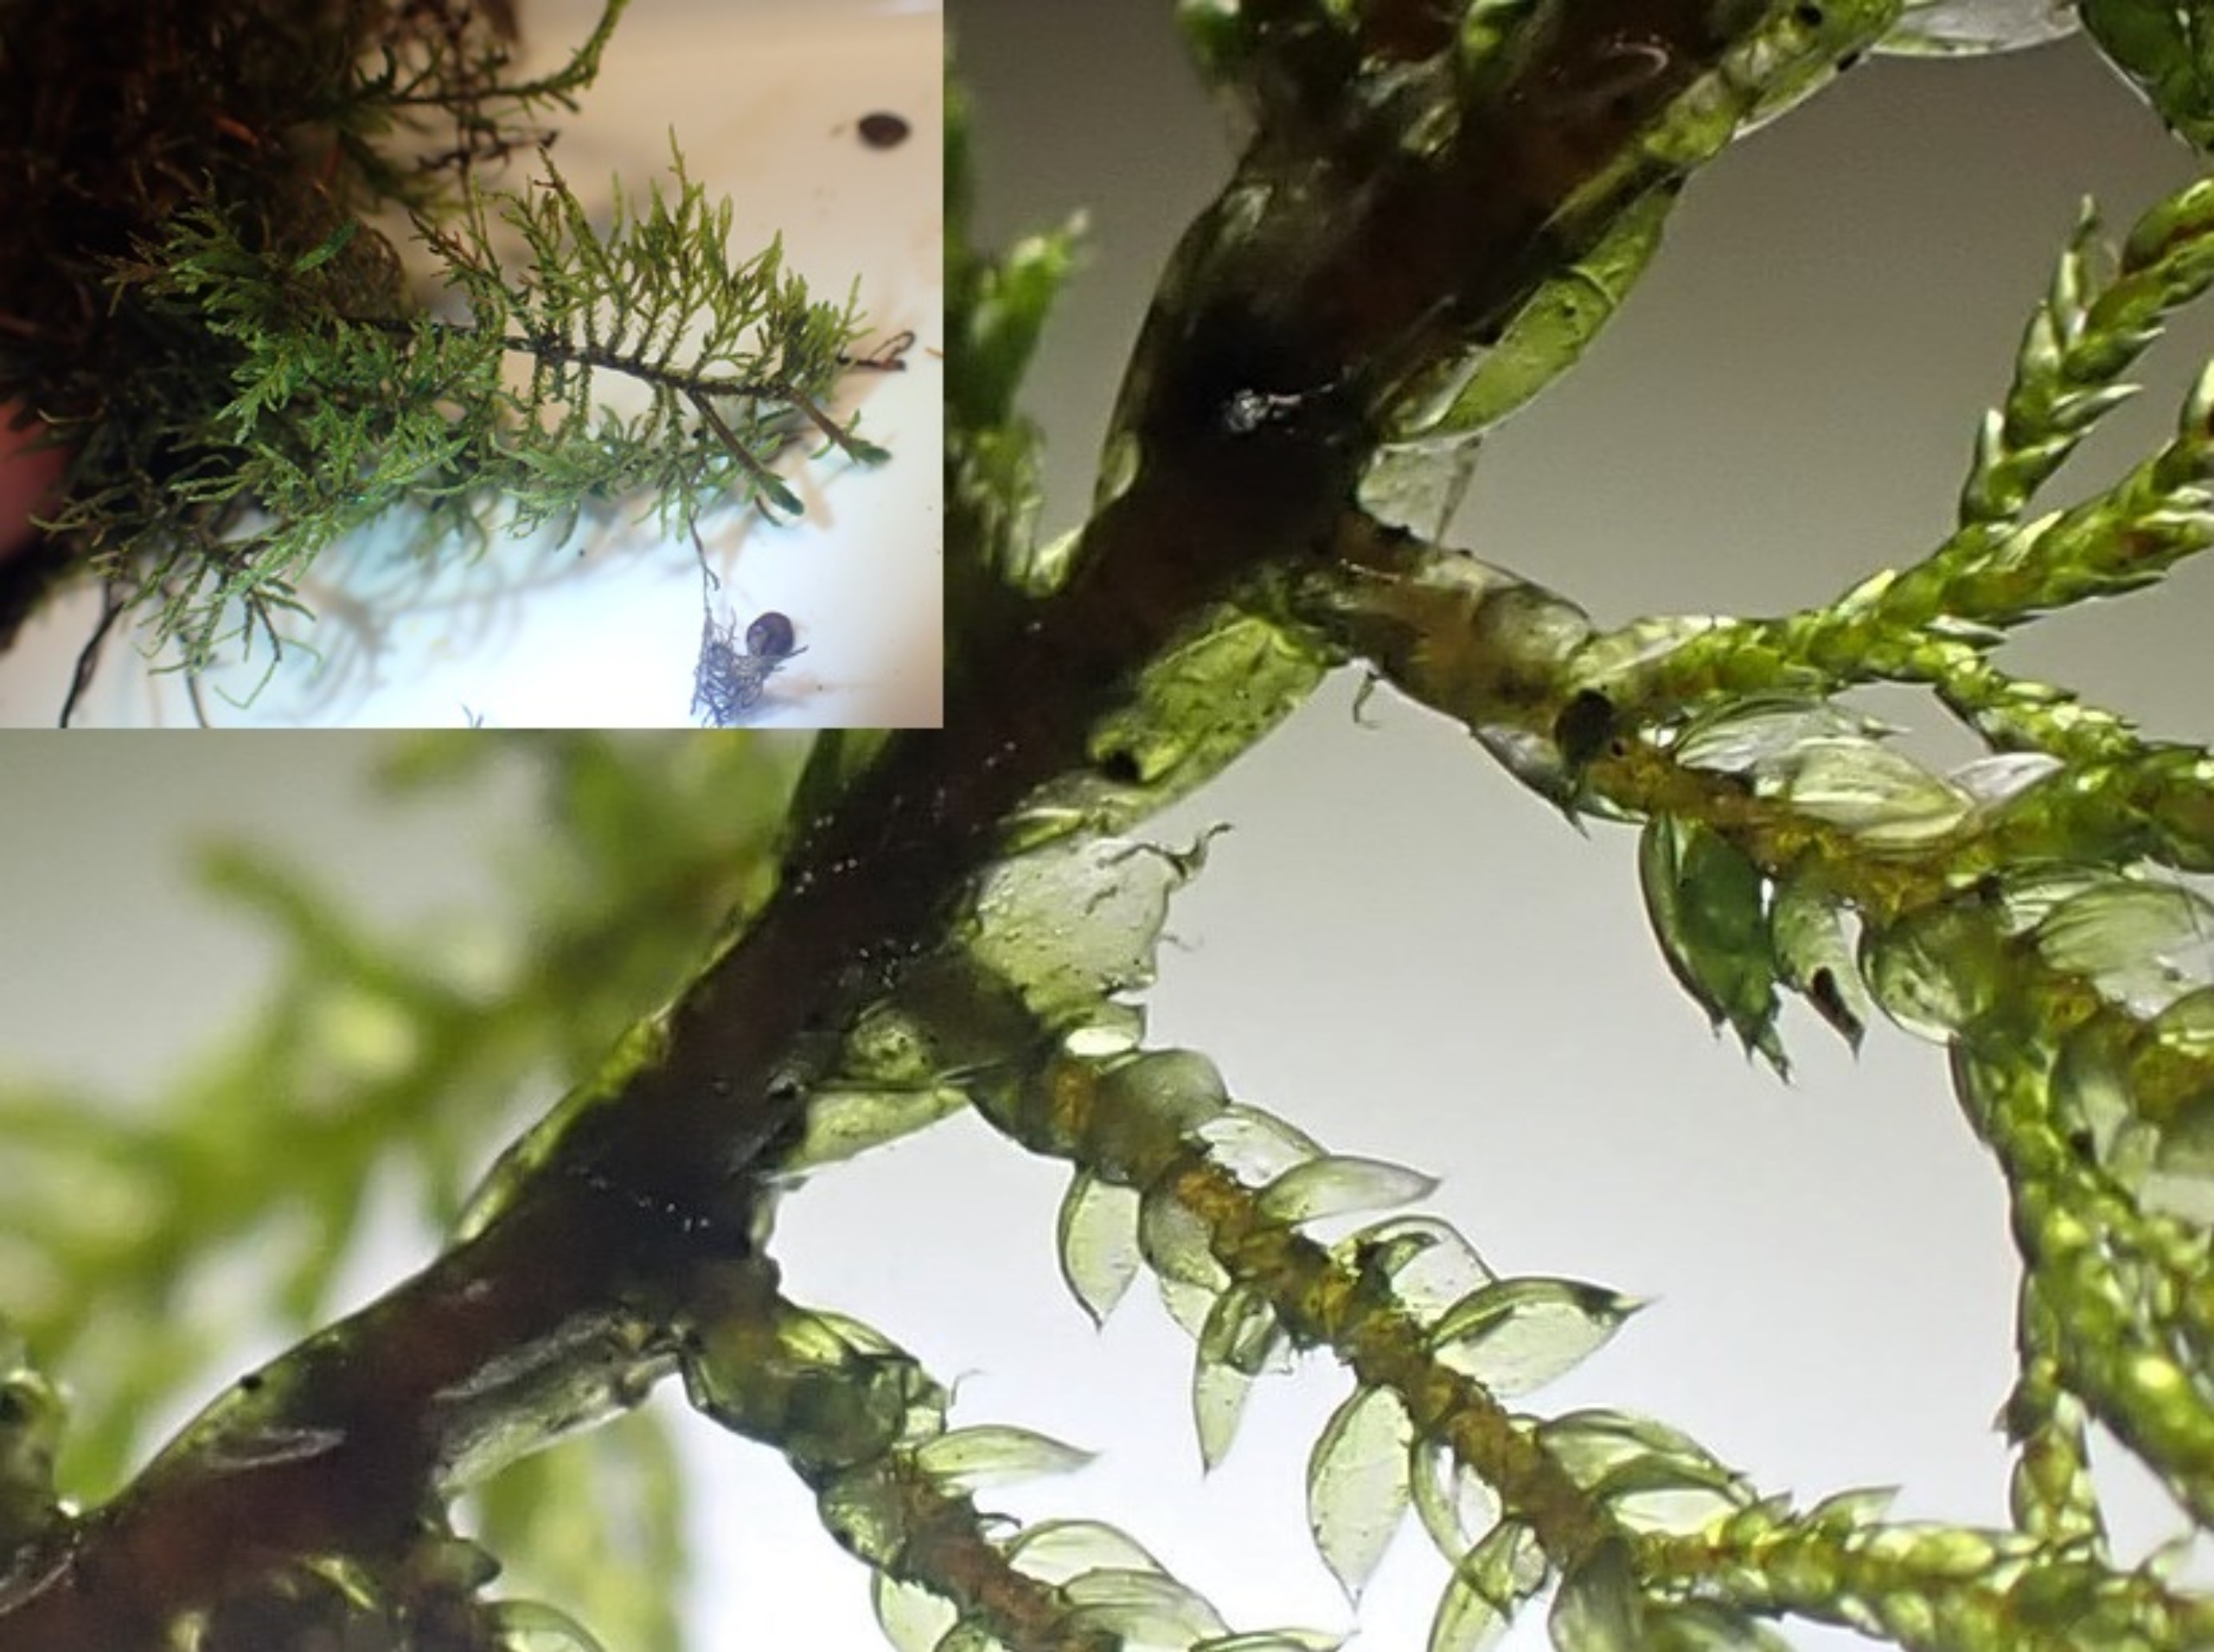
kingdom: Plantae
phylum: Bryophyta
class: Bryopsida
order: Hypnales
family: Hylocomiaceae
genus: Hylocomium
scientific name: Hylocomium splendens
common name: Almindelig etagemos
